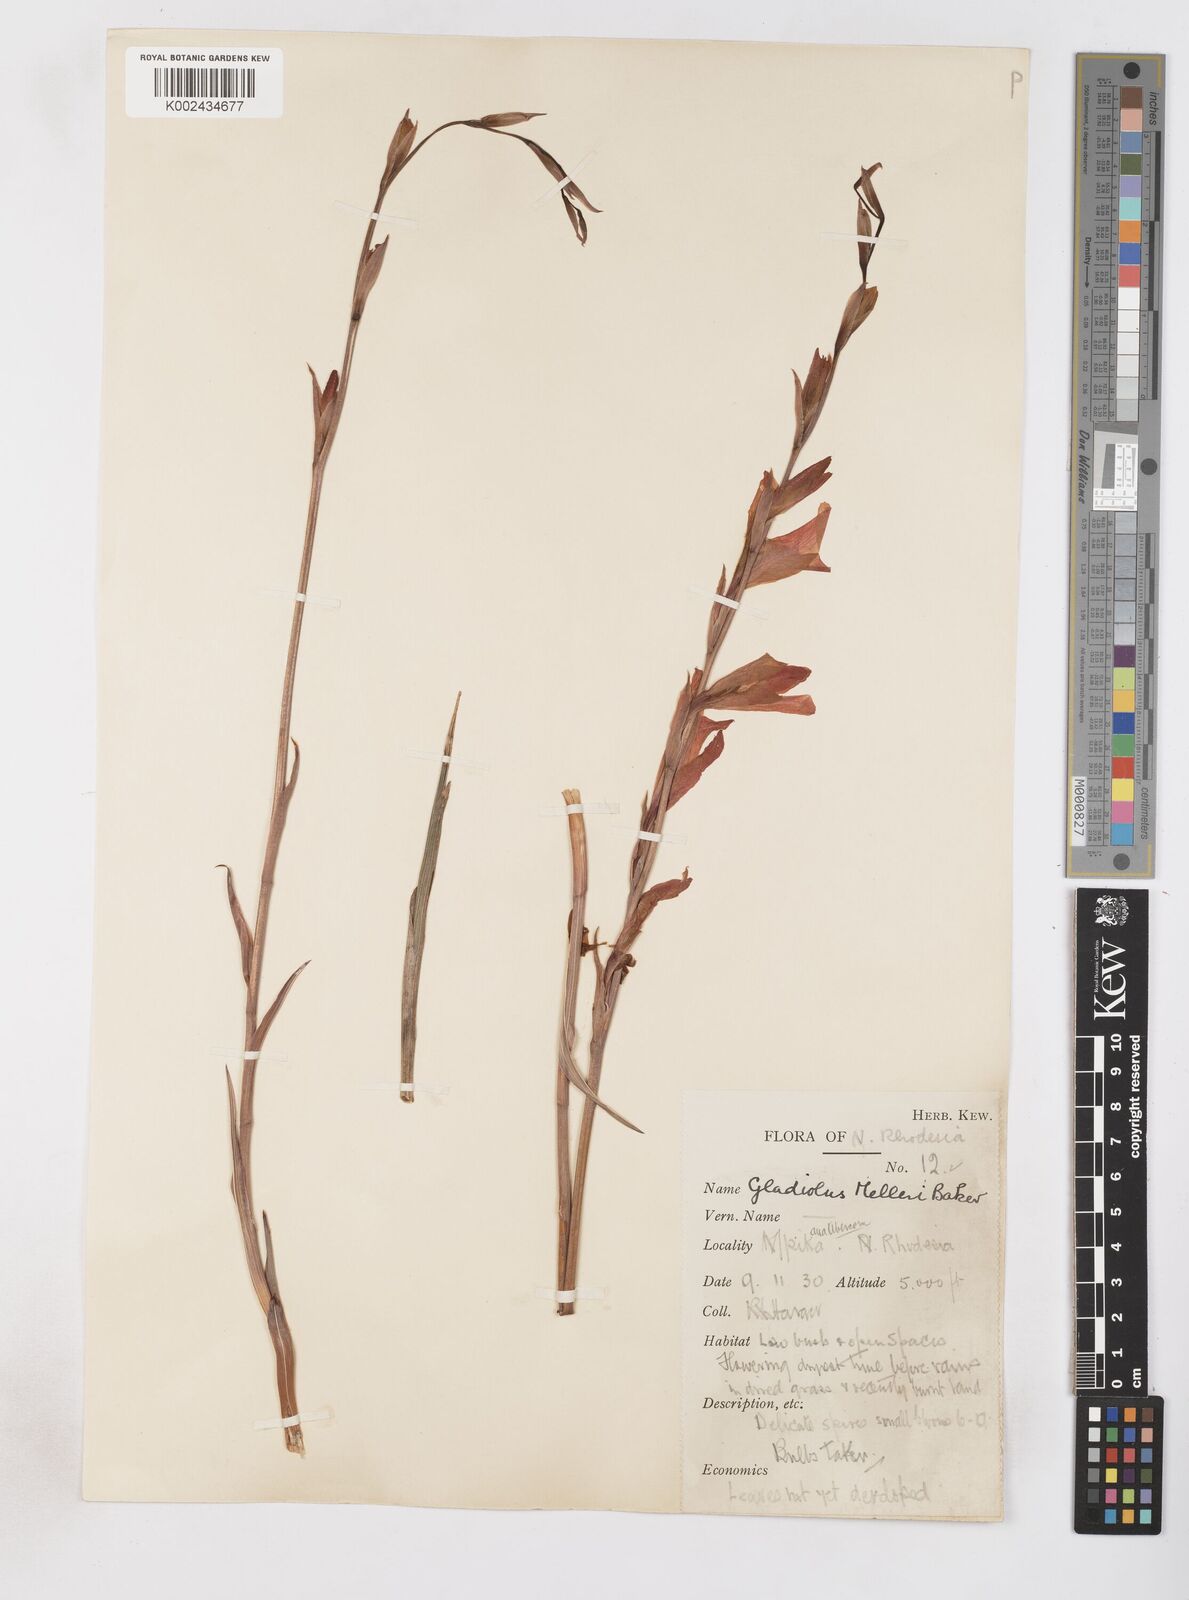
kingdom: Plantae
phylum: Tracheophyta
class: Liliopsida
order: Asparagales
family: Iridaceae
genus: Gladiolus
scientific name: Gladiolus melleri
